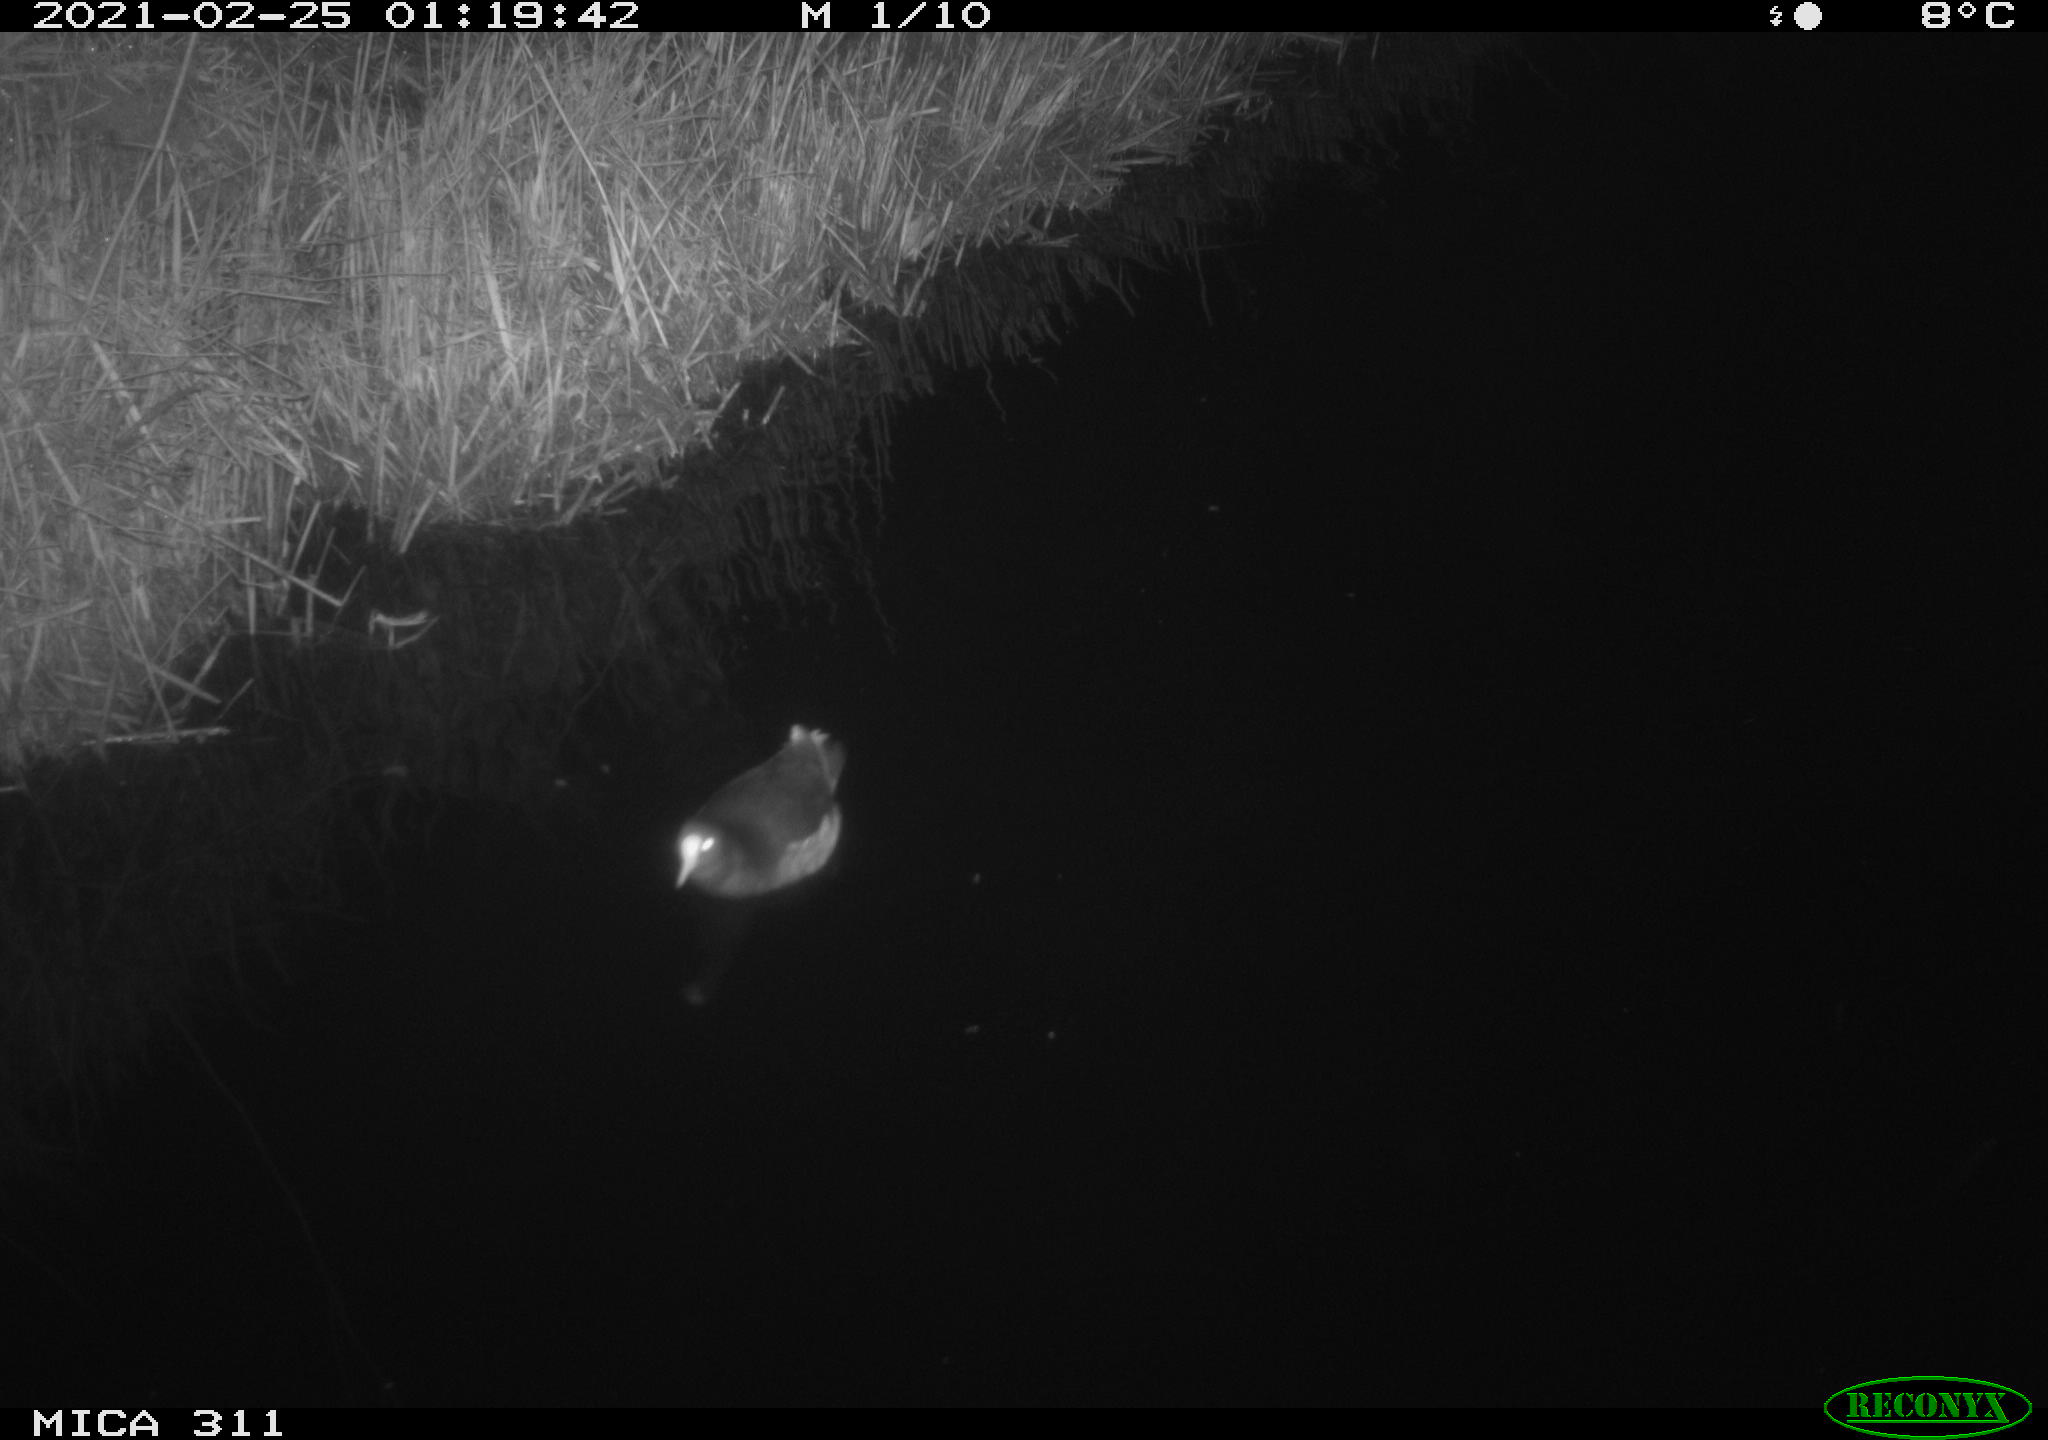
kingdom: Animalia
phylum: Chordata
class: Aves
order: Gruiformes
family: Rallidae
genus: Gallinula
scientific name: Gallinula chloropus
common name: Common moorhen
